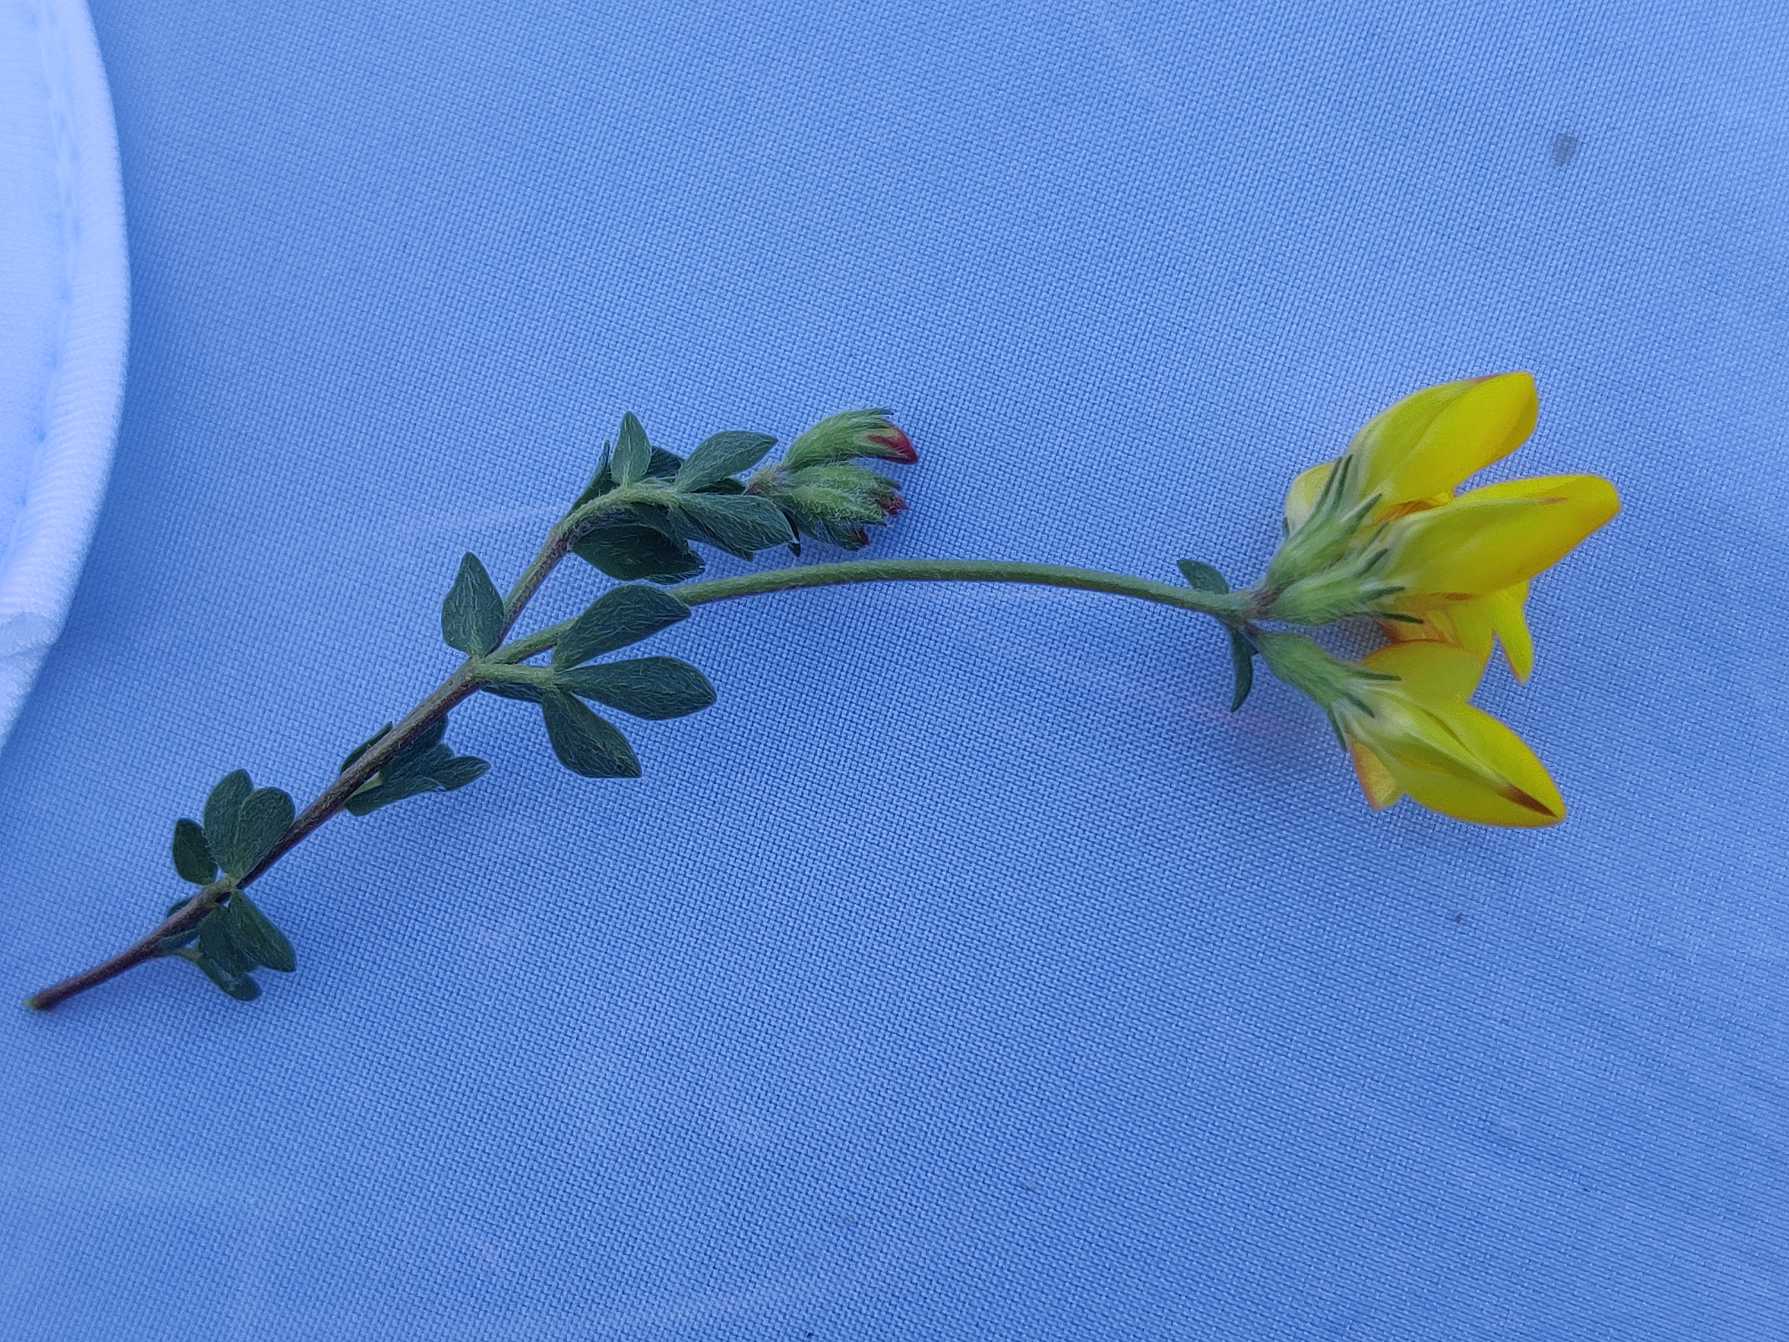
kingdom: Plantae
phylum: Tracheophyta
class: Magnoliopsida
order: Fabales
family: Fabaceae
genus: Lotus
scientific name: Lotus corniculatus
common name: Almindelig kællingetand
